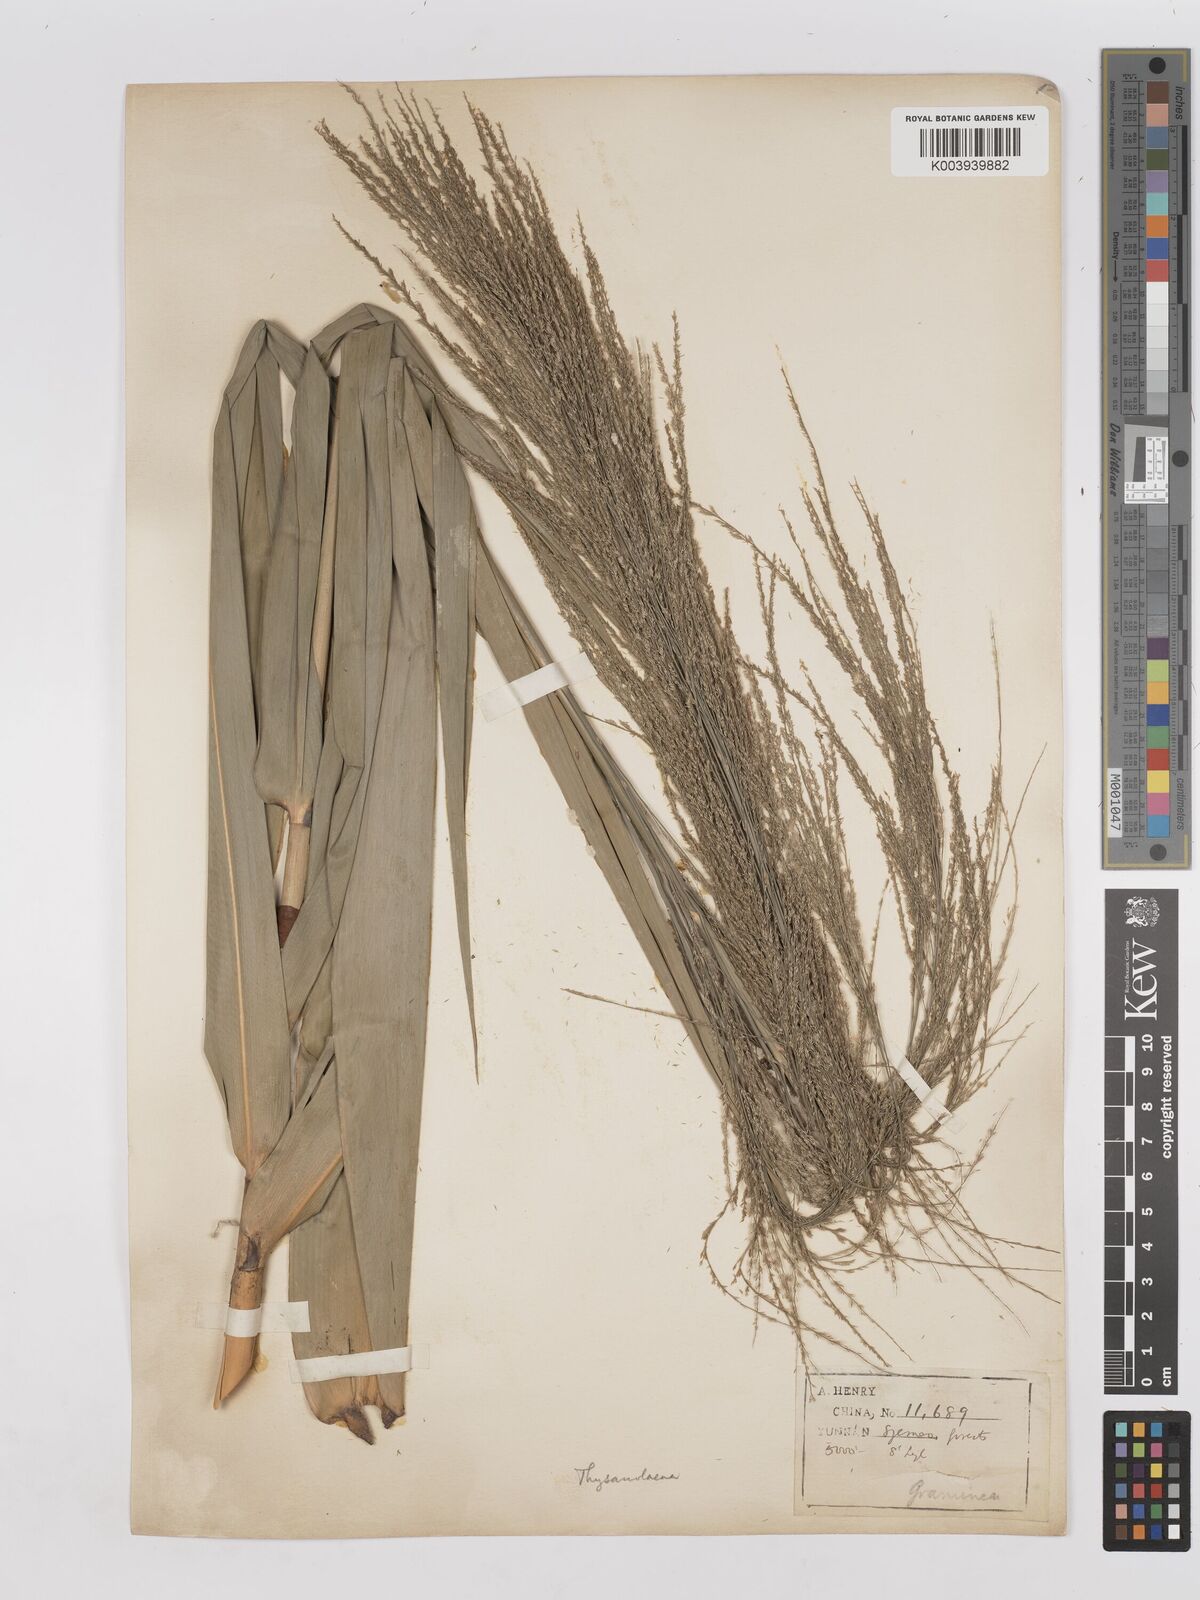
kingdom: Plantae
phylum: Tracheophyta
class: Liliopsida
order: Poales
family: Poaceae
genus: Thysanolaena
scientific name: Thysanolaena latifolia
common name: Tiger grass
